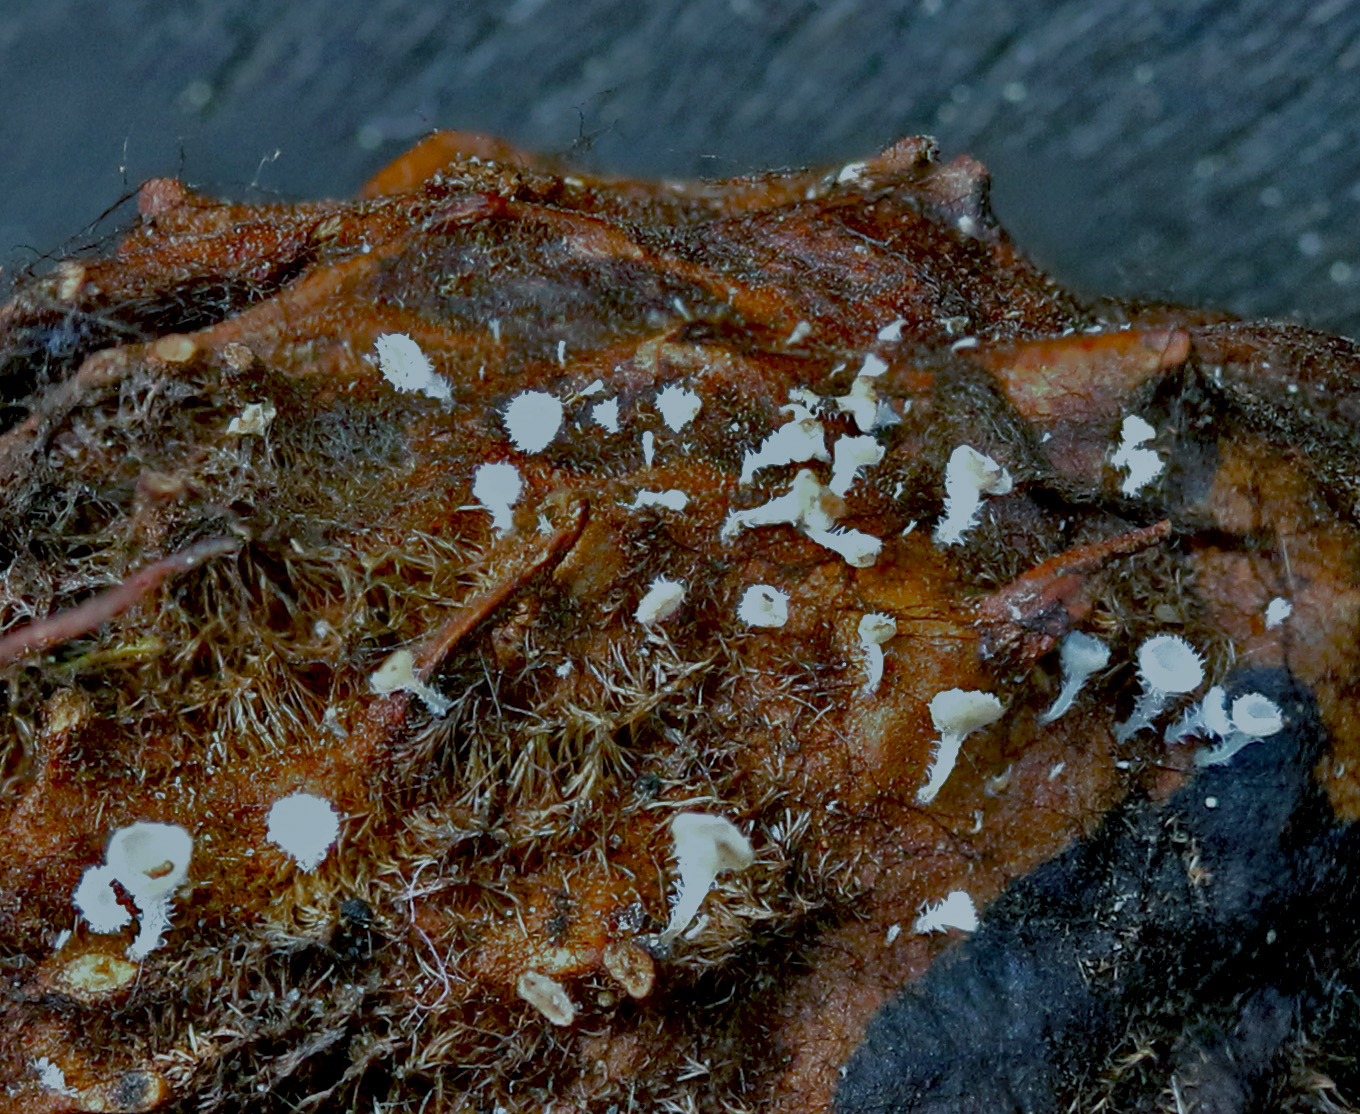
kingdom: Fungi
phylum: Ascomycota
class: Leotiomycetes
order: Helotiales
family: Lachnaceae
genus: Lachnum
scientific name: Lachnum virgineum
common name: jomfru-frynseskive
